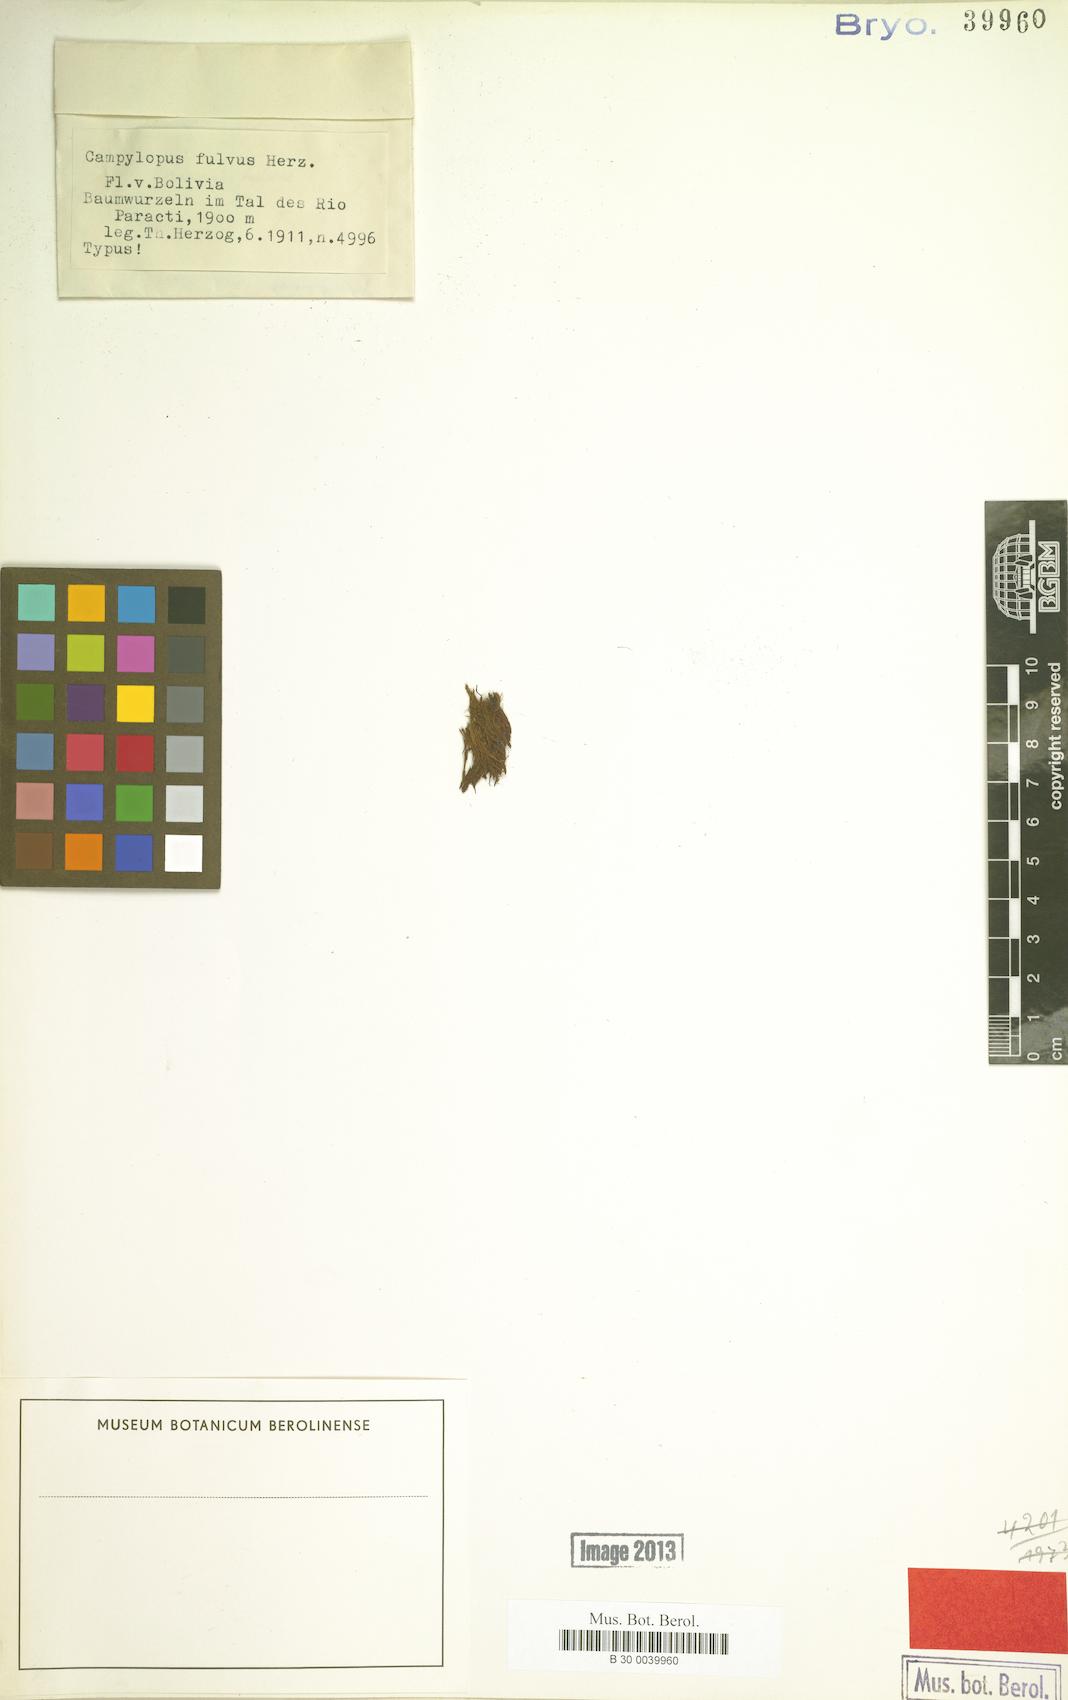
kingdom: Plantae
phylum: Bryophyta
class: Bryopsida
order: Dicranales
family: Dicranaceae
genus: Orthodicranum
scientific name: Orthodicranum fulvum
